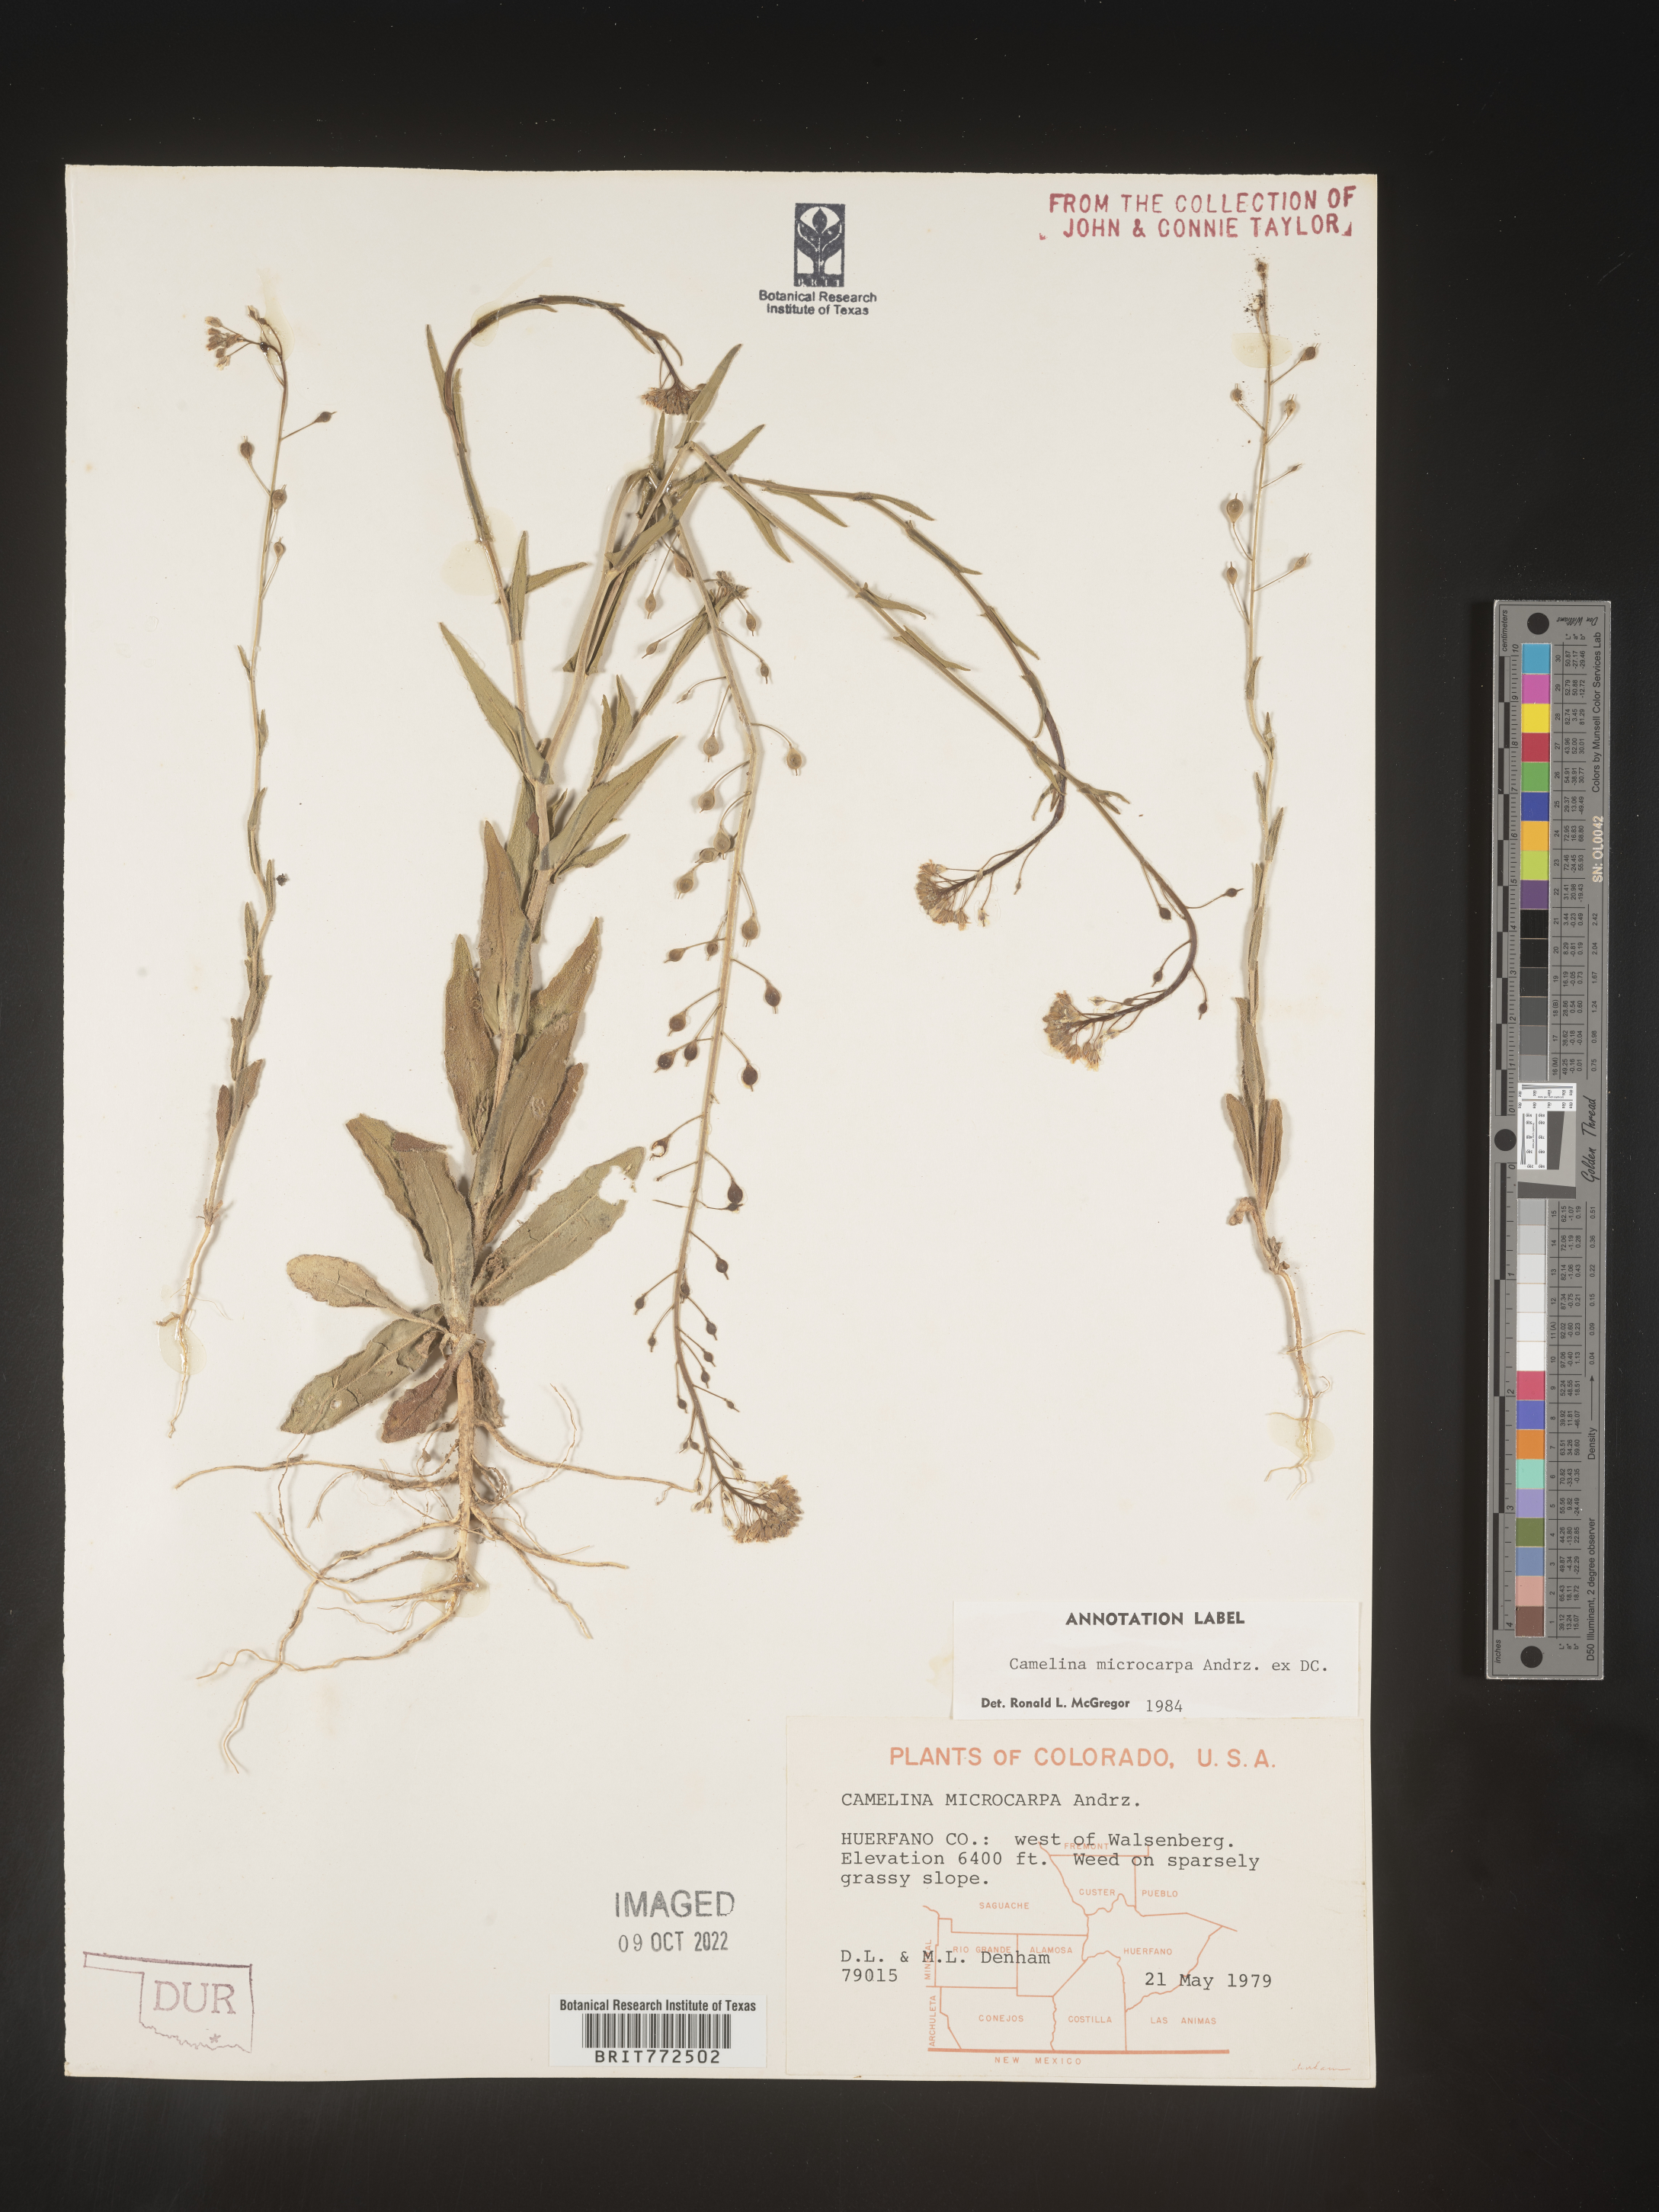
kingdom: Plantae
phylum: Tracheophyta
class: Magnoliopsida
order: Brassicales
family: Brassicaceae
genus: Camelina
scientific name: Camelina microcarpa
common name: Lesser gold-of-pleasure
